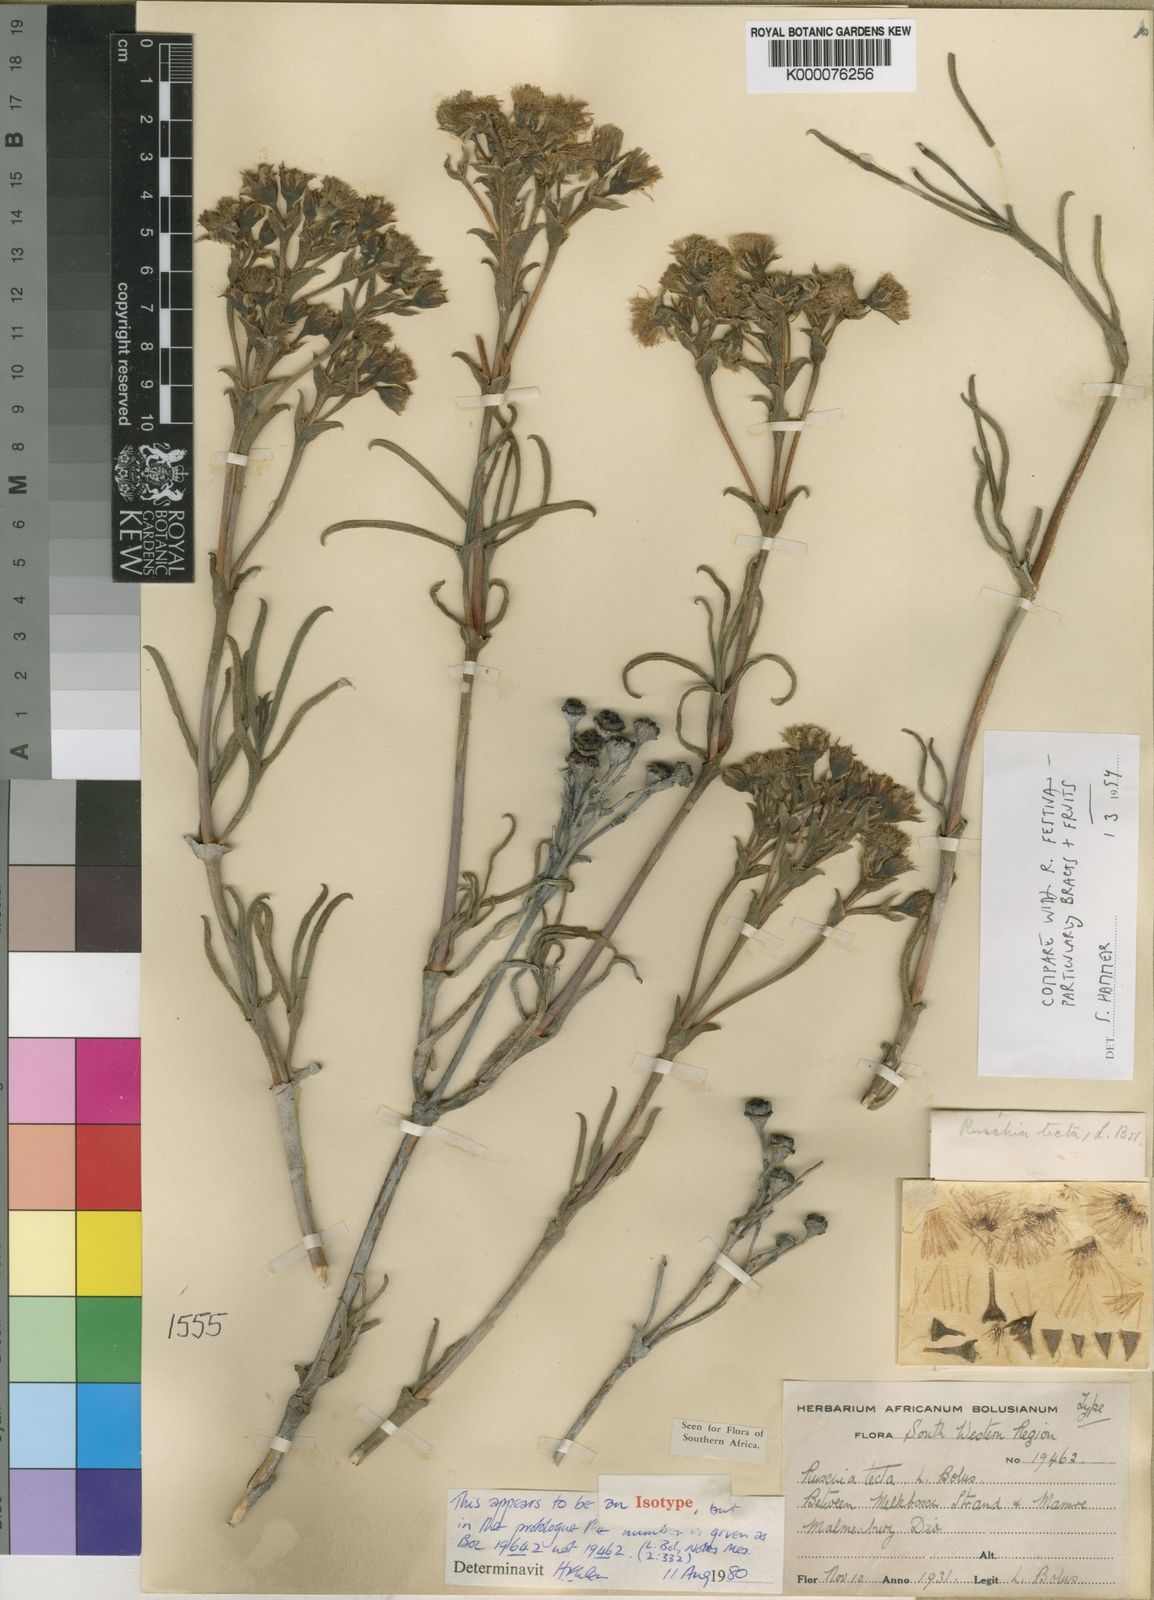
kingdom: Plantae
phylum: Tracheophyta
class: Magnoliopsida
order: Caryophyllales
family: Aizoaceae
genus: Ruschia
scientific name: Ruschia tecta
